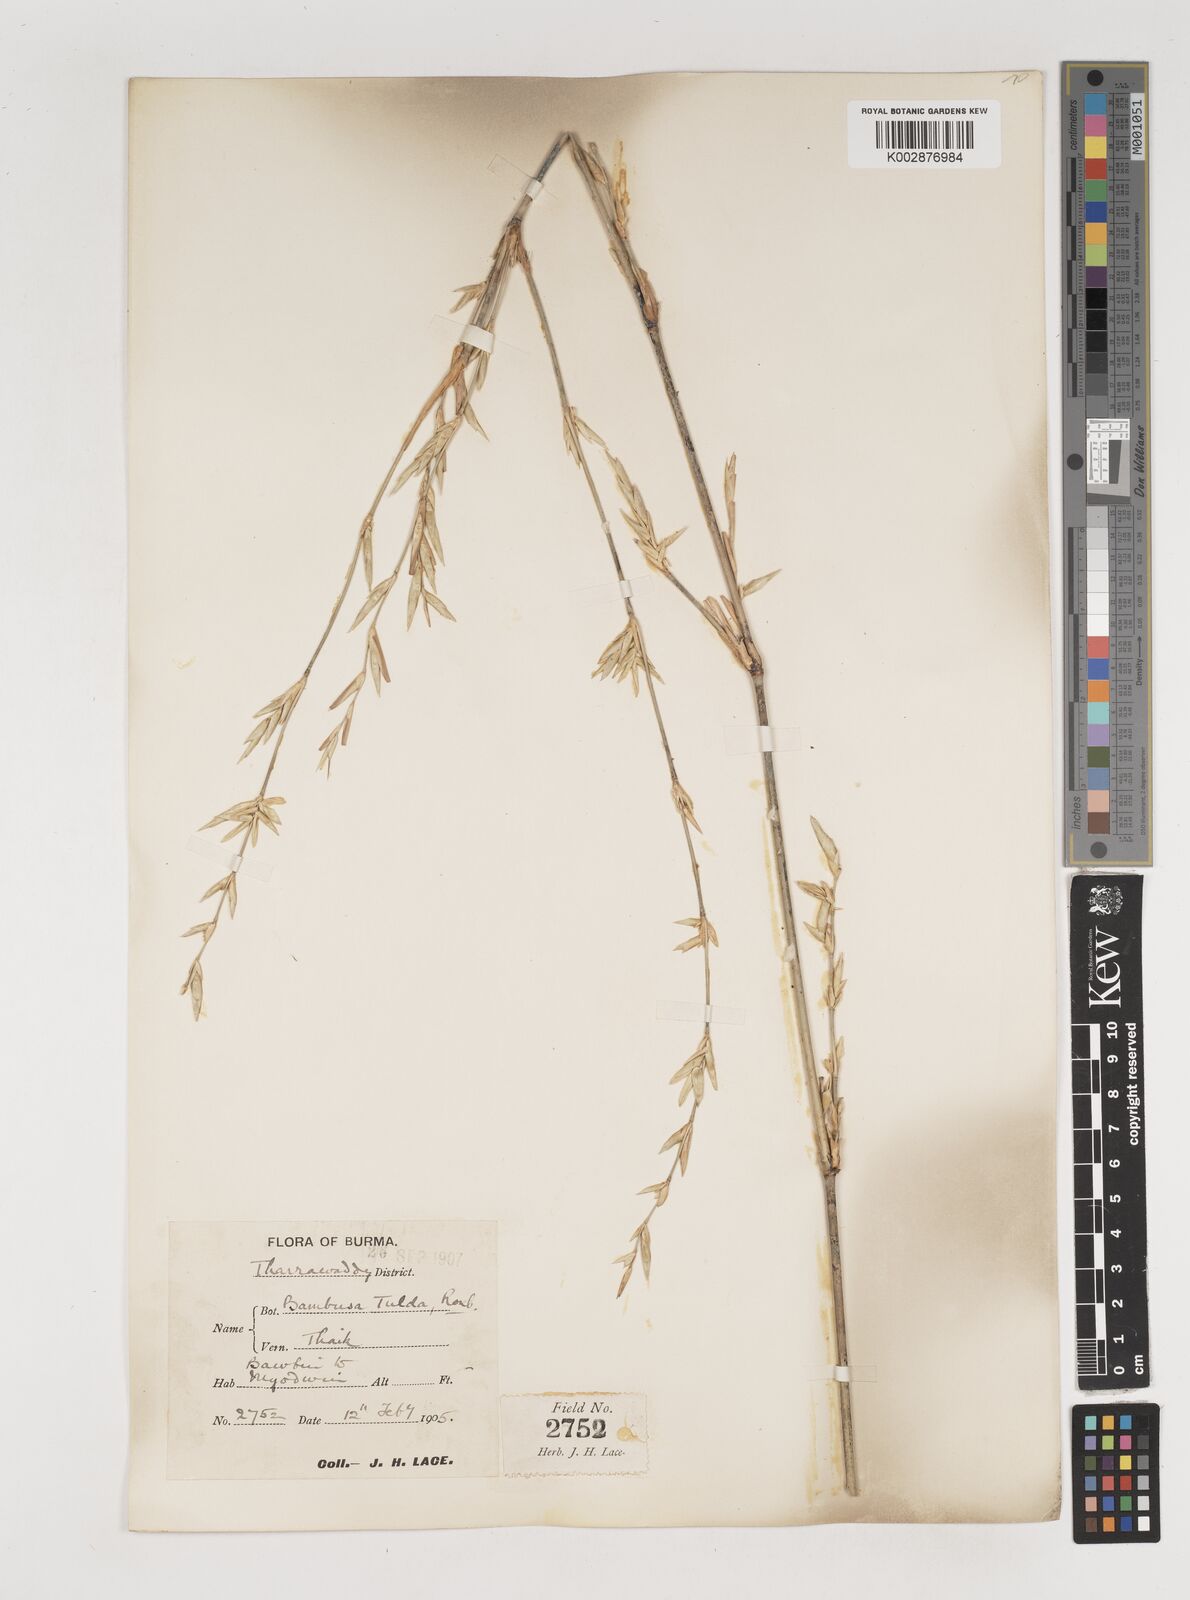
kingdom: Plantae
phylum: Tracheophyta
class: Liliopsida
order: Poales
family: Poaceae
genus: Bambusa
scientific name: Bambusa tulda
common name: Bengal bamboo
